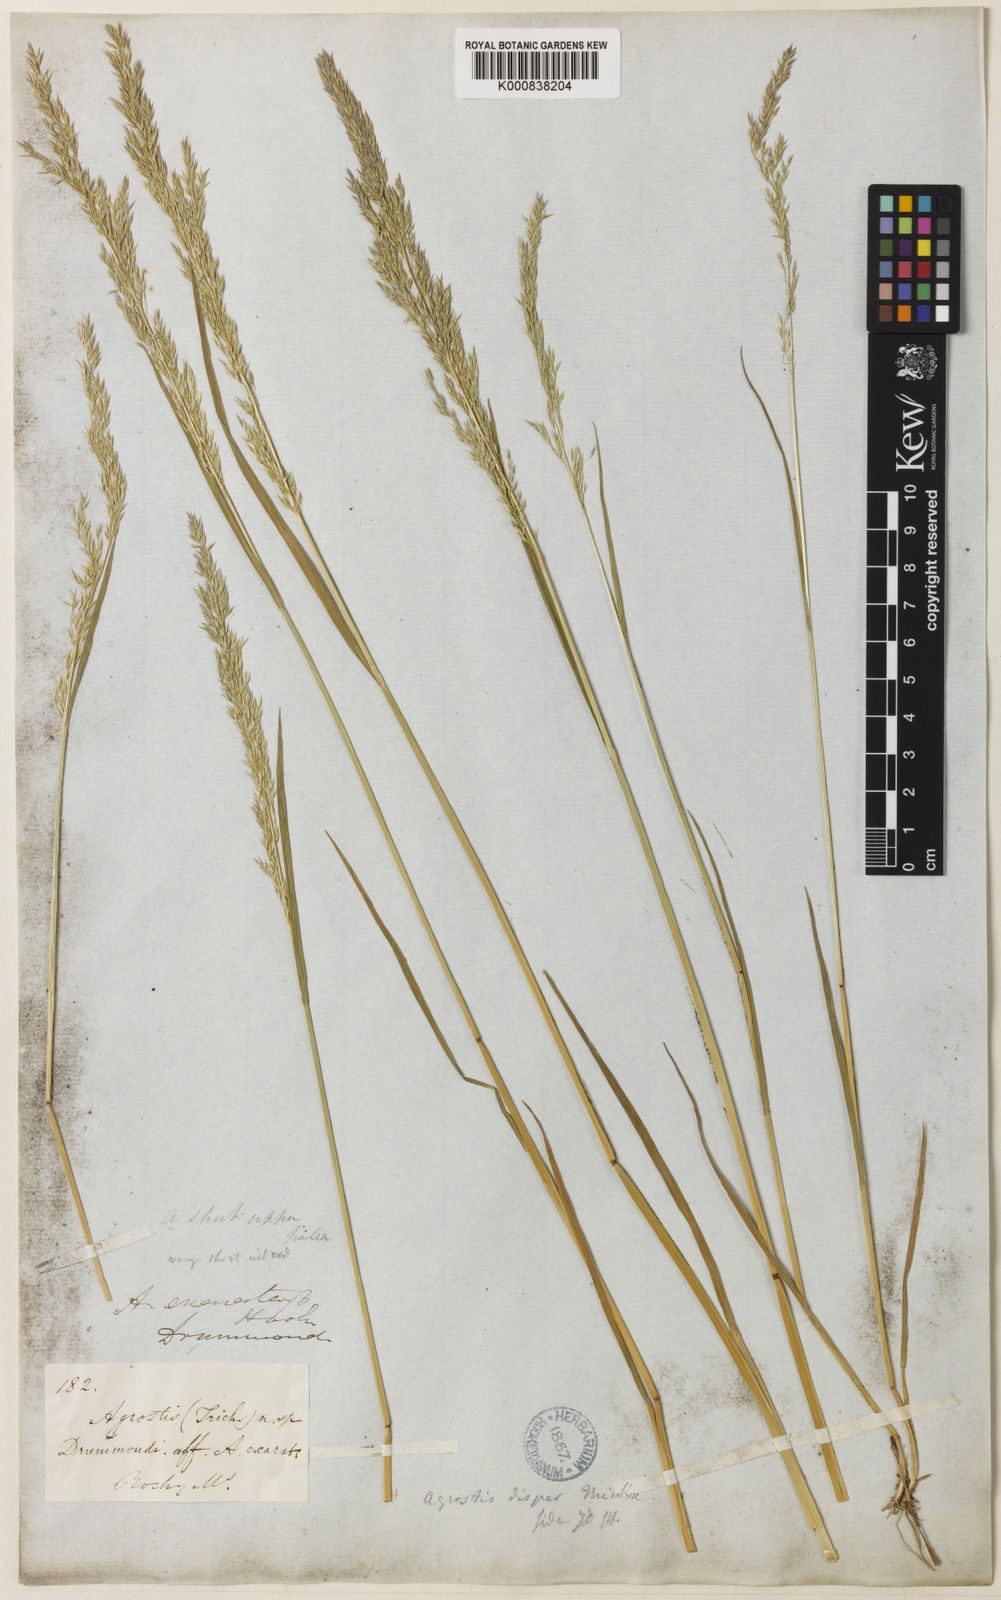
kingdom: Plantae
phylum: Tracheophyta
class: Liliopsida
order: Poales
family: Poaceae
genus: Agrostis
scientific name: Agrostis
